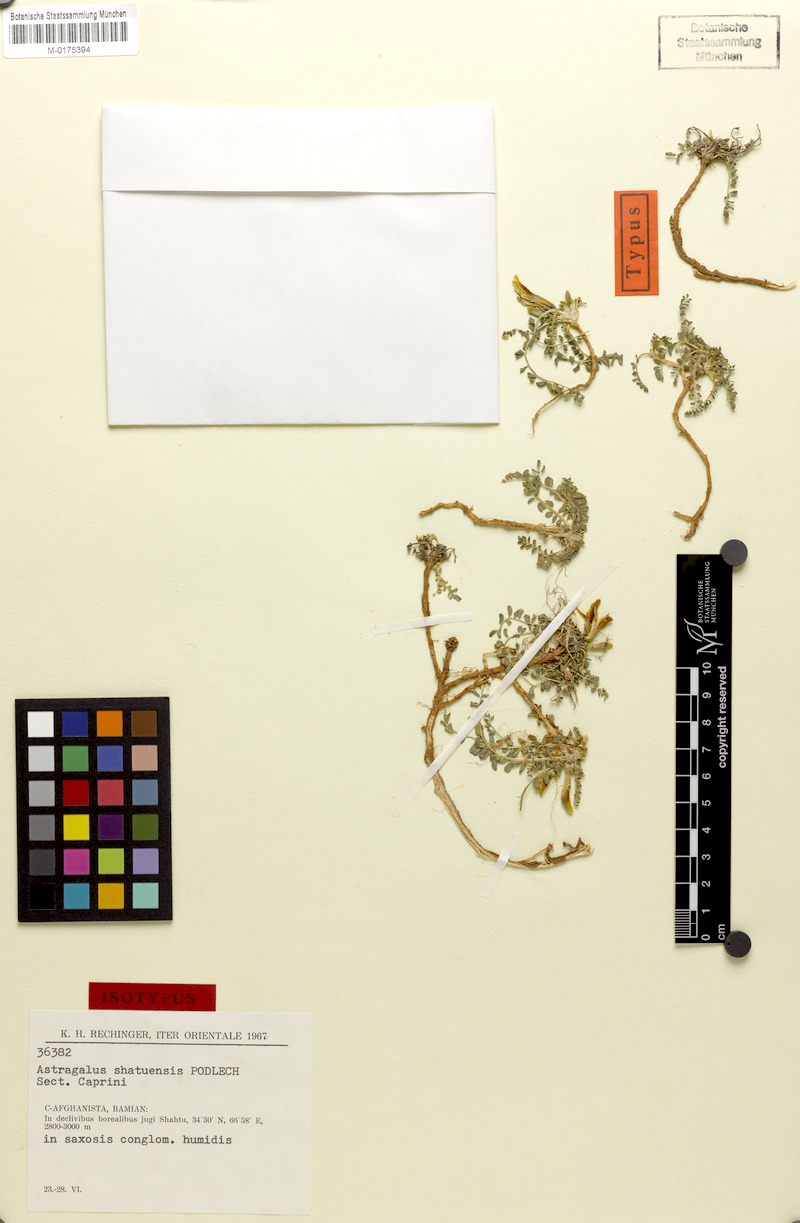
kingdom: Plantae
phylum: Tracheophyta
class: Magnoliopsida
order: Fabales
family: Fabaceae
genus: Astragalus
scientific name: Astragalus shatuensis
